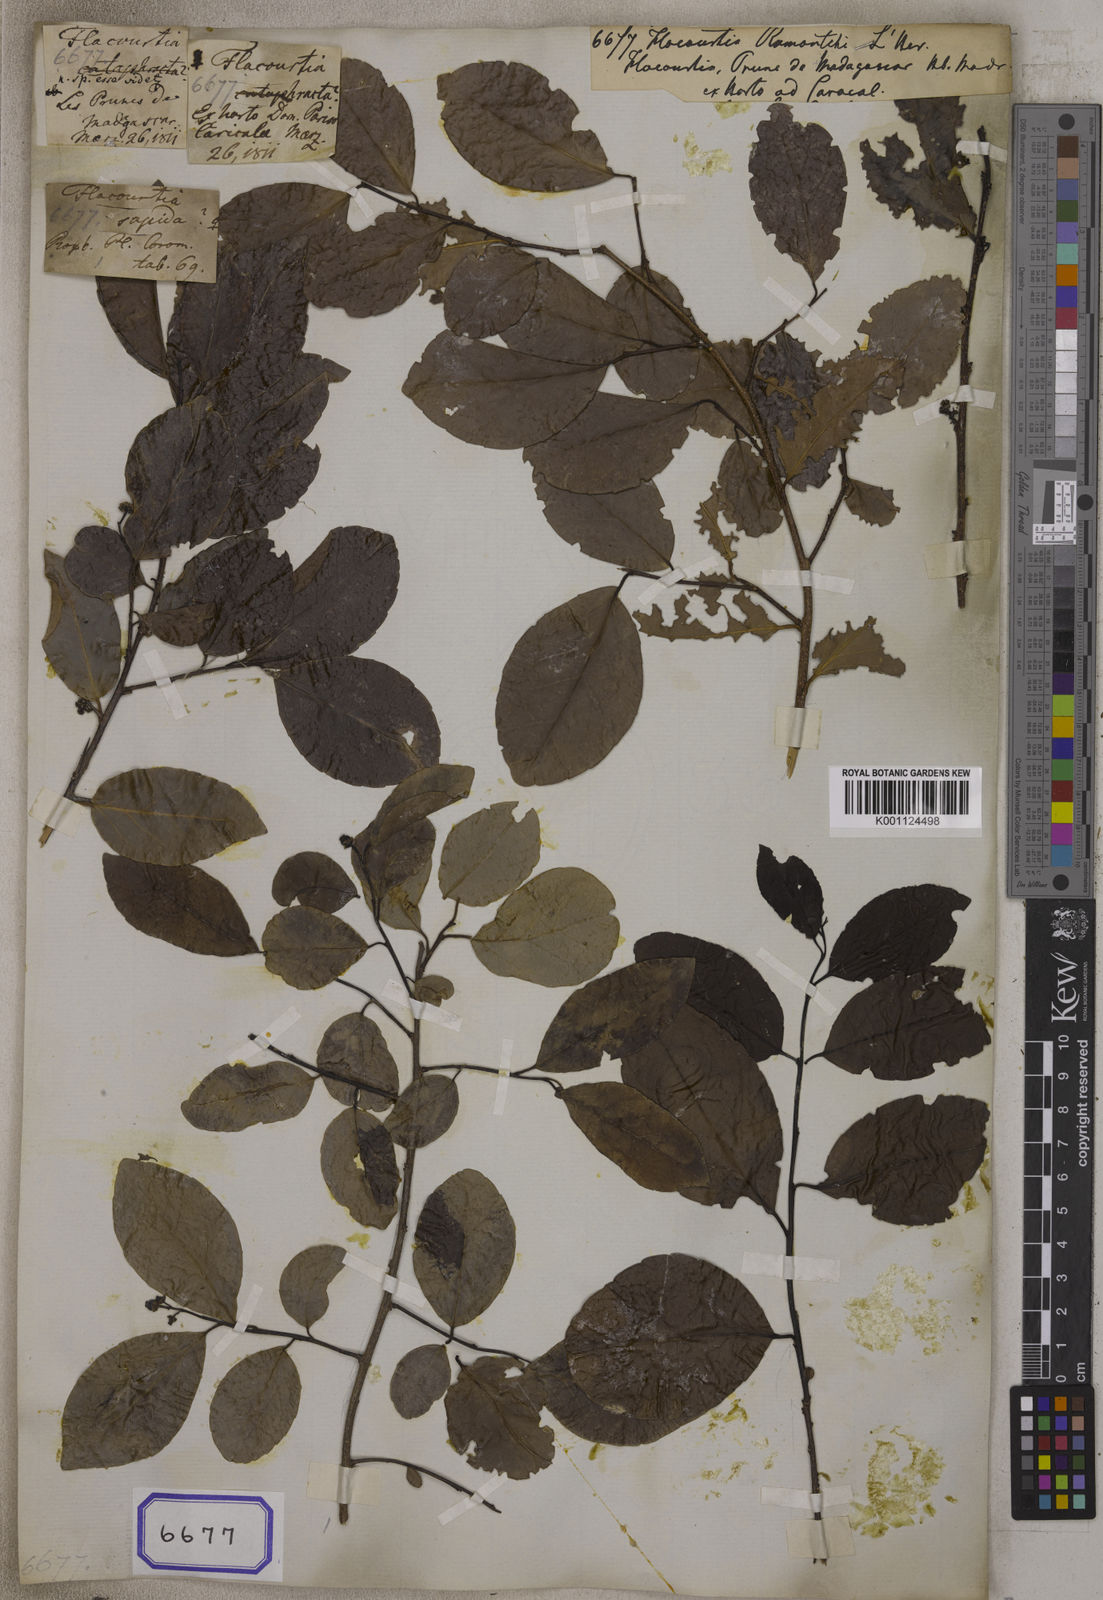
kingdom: Plantae
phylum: Tracheophyta
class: Magnoliopsida
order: Malpighiales
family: Salicaceae
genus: Flacourtia
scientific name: Flacourtia
